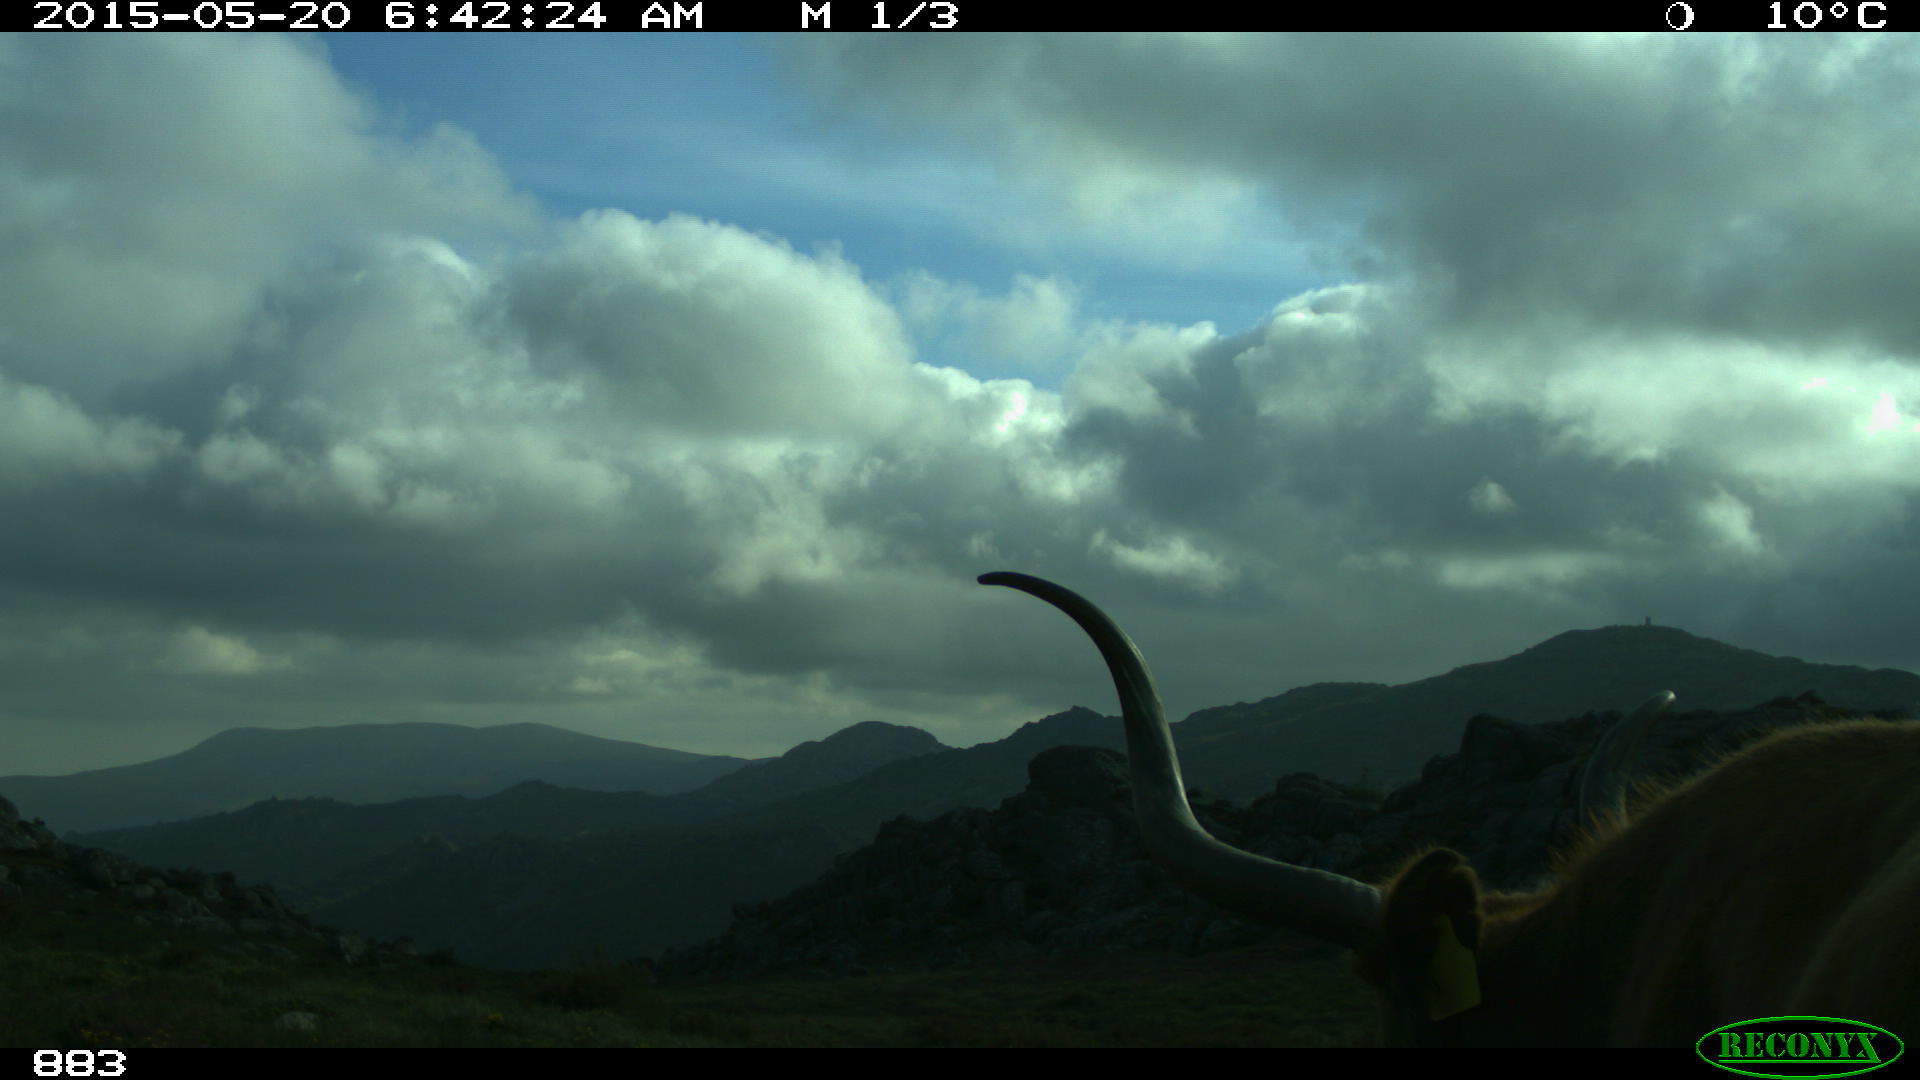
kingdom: Animalia
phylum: Chordata
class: Mammalia
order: Artiodactyla
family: Bovidae
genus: Bos
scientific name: Bos taurus
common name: Domesticated cattle
